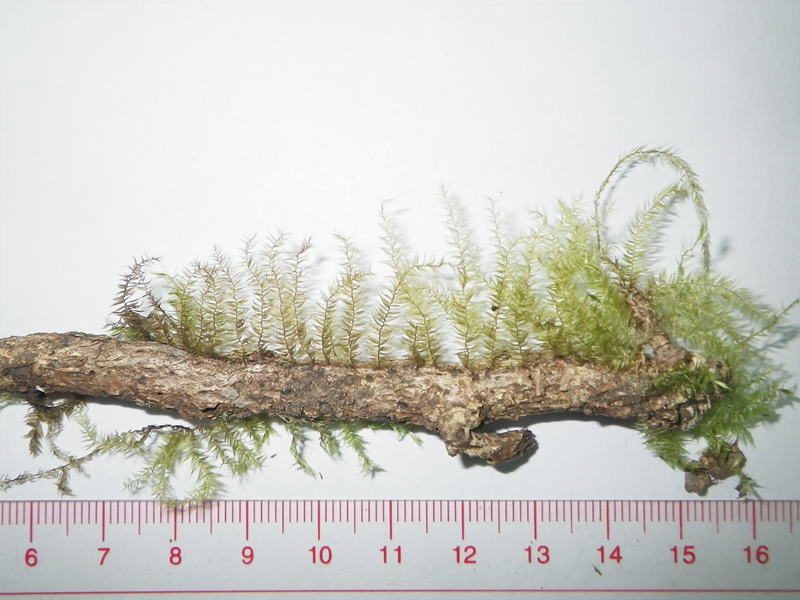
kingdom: Plantae
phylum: Bryophyta
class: Bryopsida
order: Hypnales
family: Meteoriaceae
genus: Pseudotrachypus
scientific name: Pseudotrachypus spiculatus
